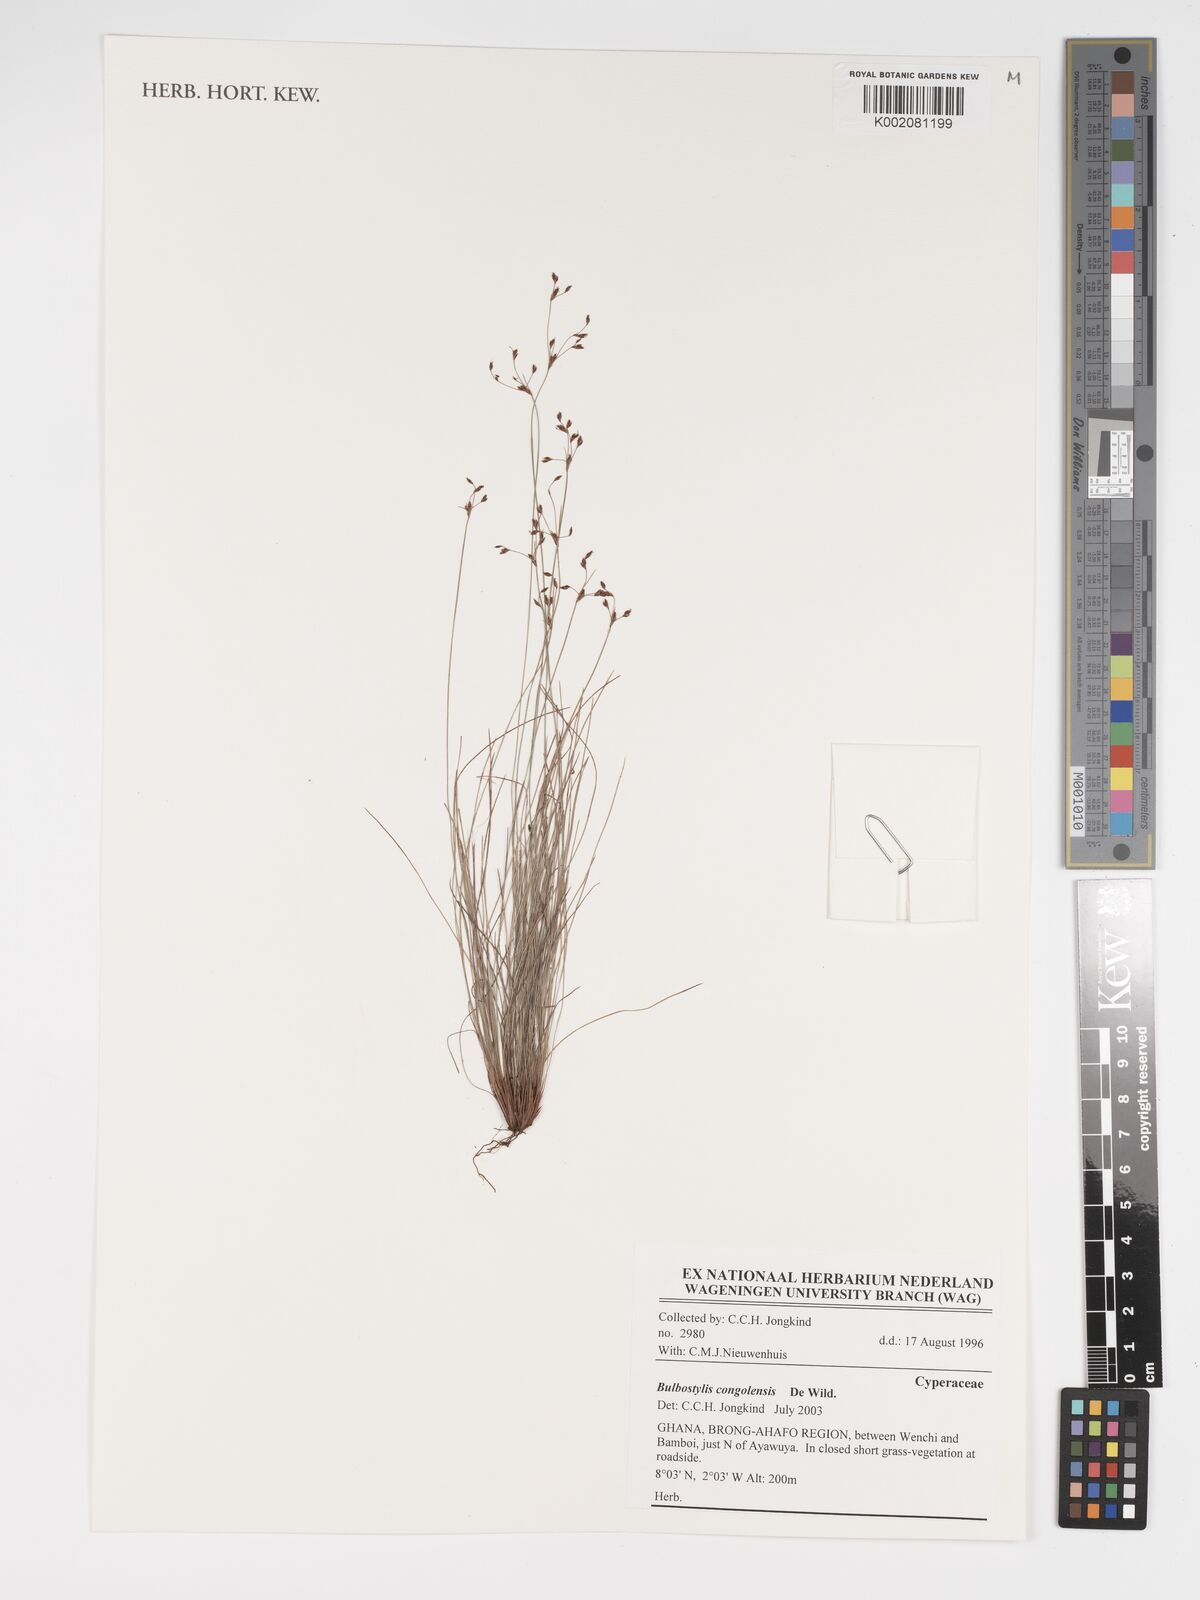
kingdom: Plantae
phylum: Tracheophyta
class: Liliopsida
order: Poales
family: Cyperaceae
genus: Bulbostylis
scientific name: Bulbostylis congolensis
